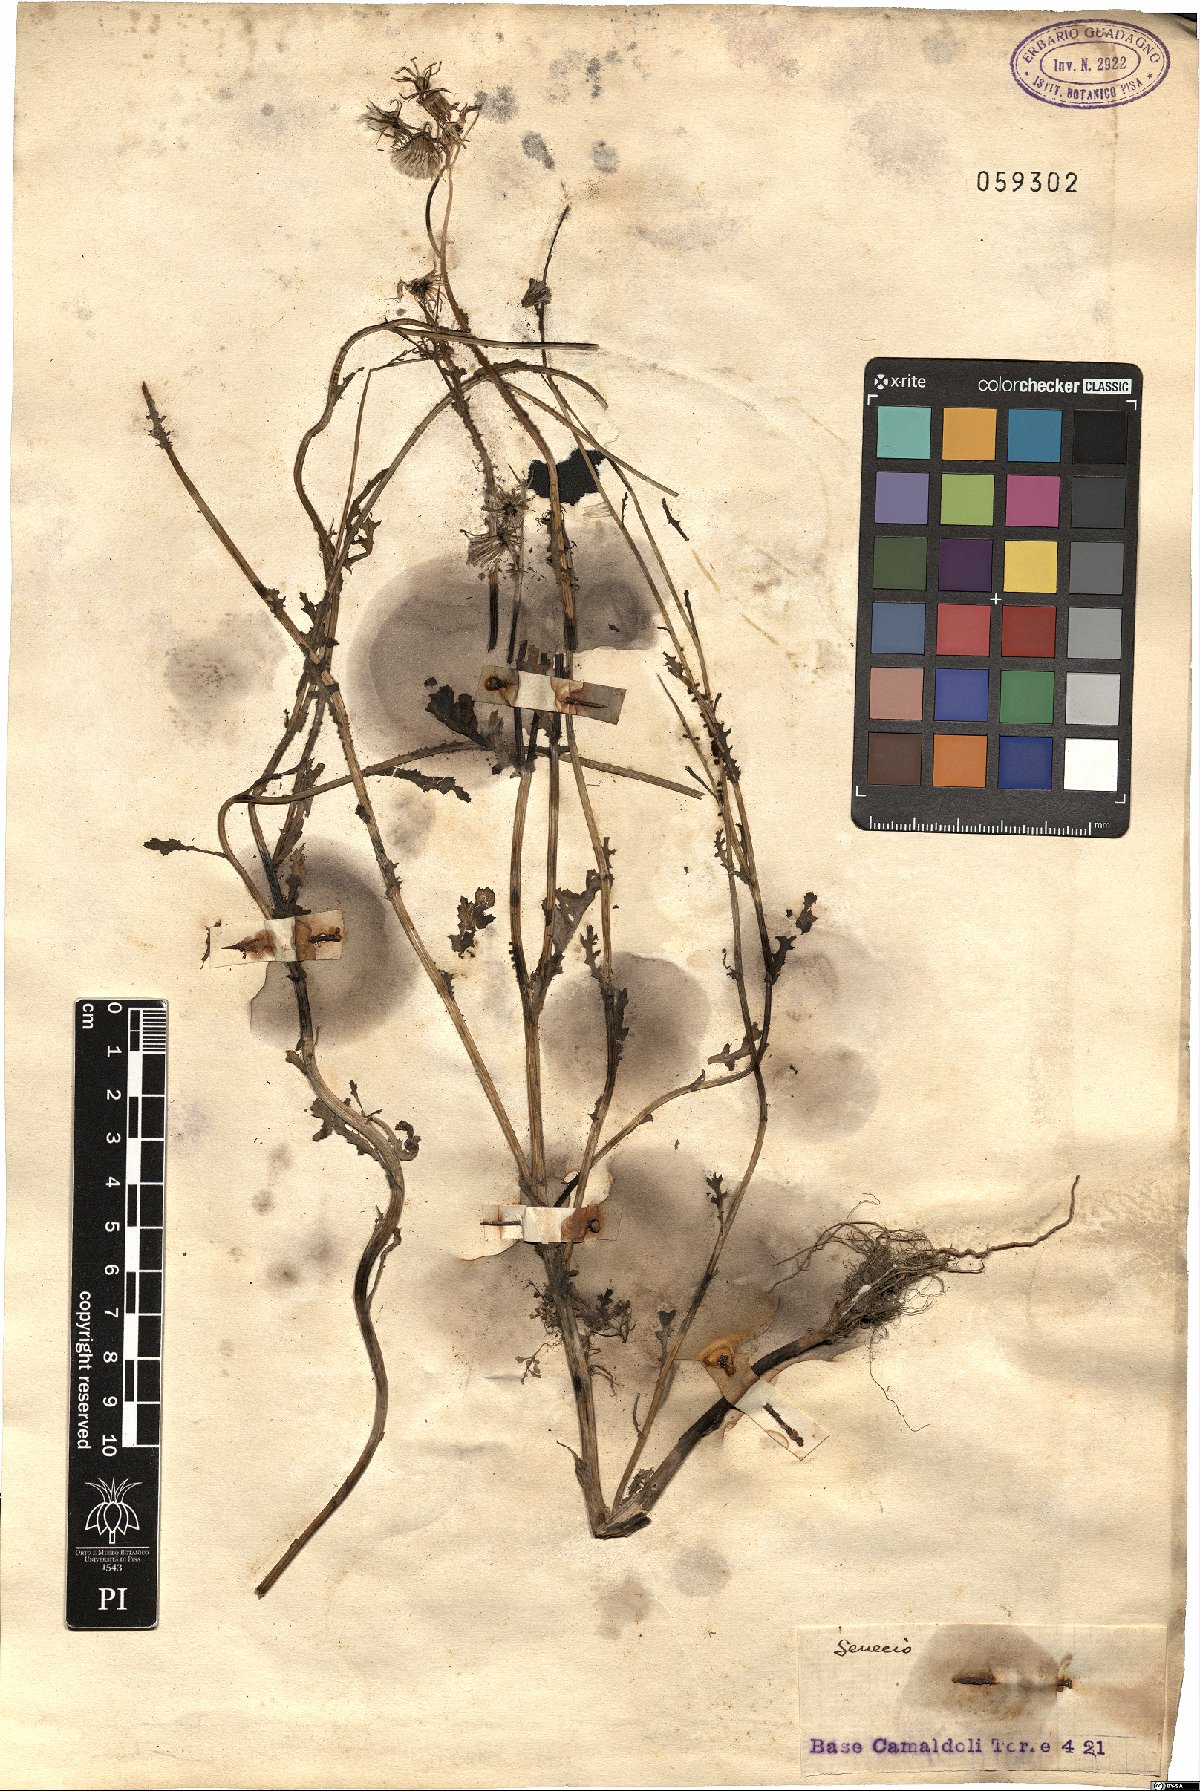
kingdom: Plantae
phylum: Tracheophyta
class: Magnoliopsida
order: Asterales
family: Asteraceae
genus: Senecio
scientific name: Senecio
